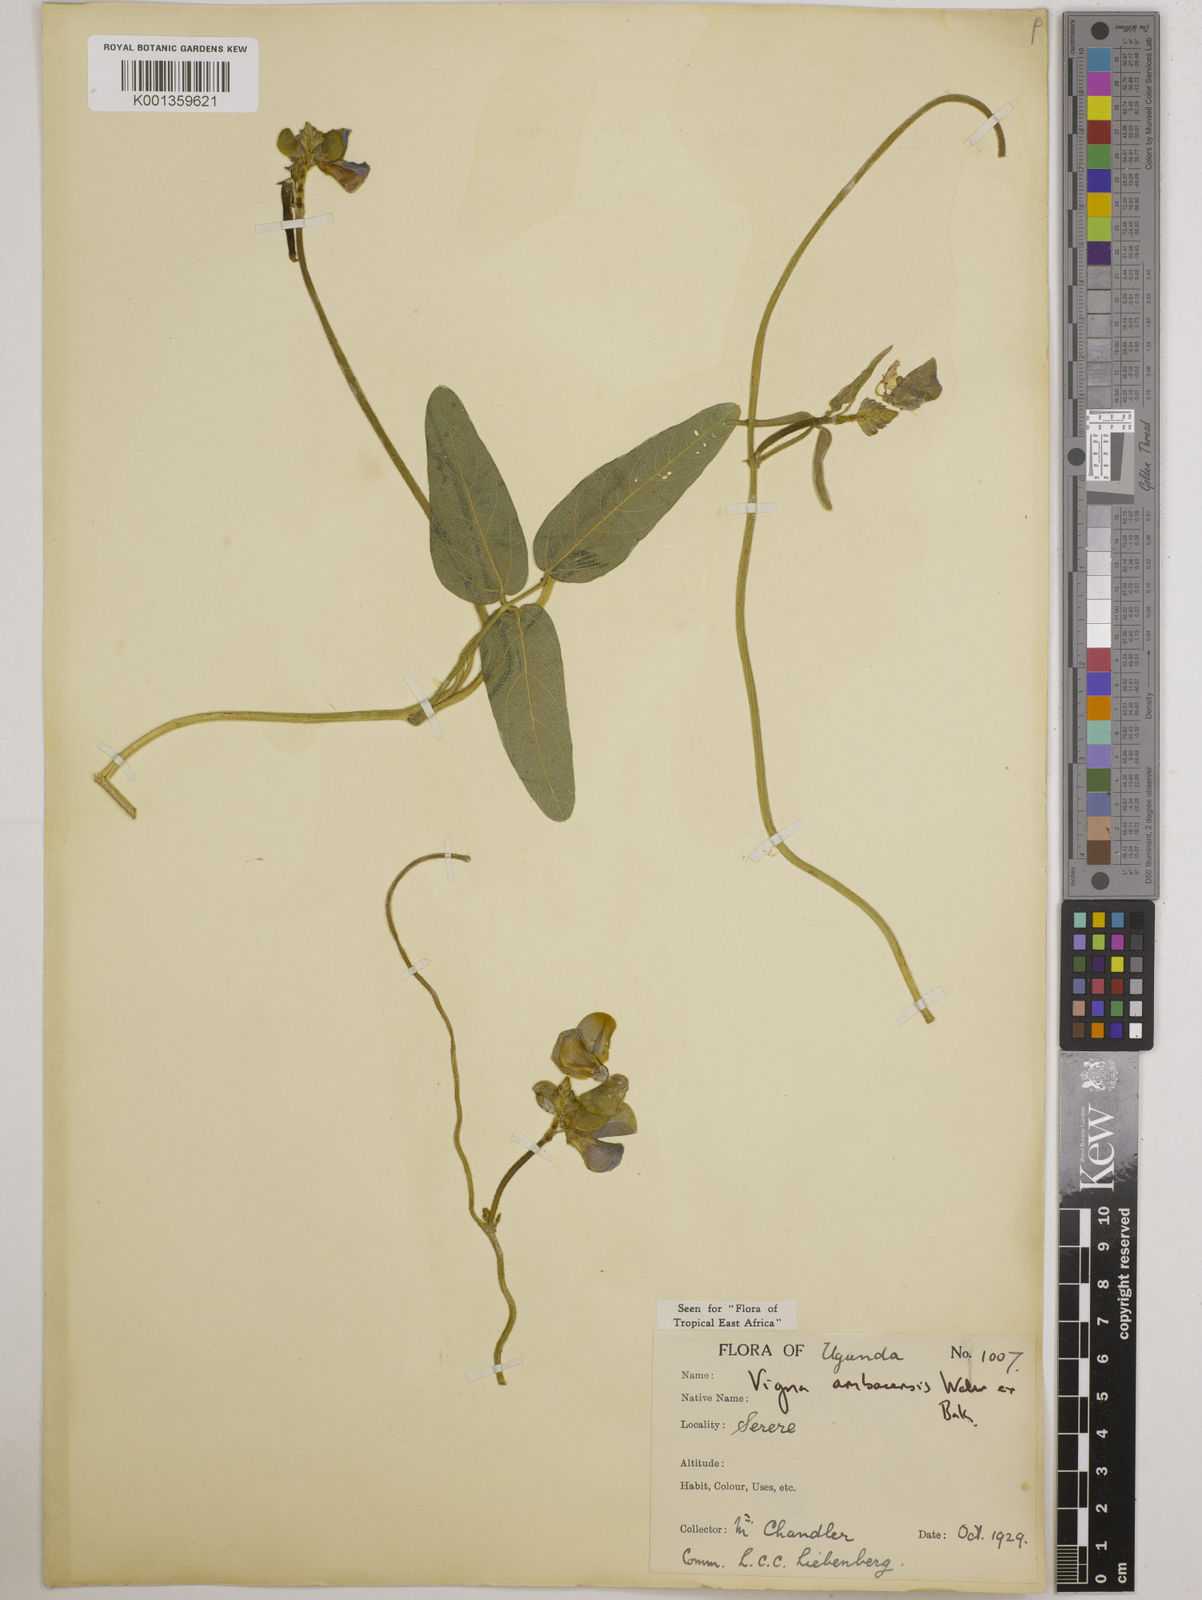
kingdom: Plantae
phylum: Tracheophyta
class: Magnoliopsida
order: Fabales
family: Fabaceae
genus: Vigna
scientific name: Vigna ambacensis
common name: Tsarkiyan zomo
